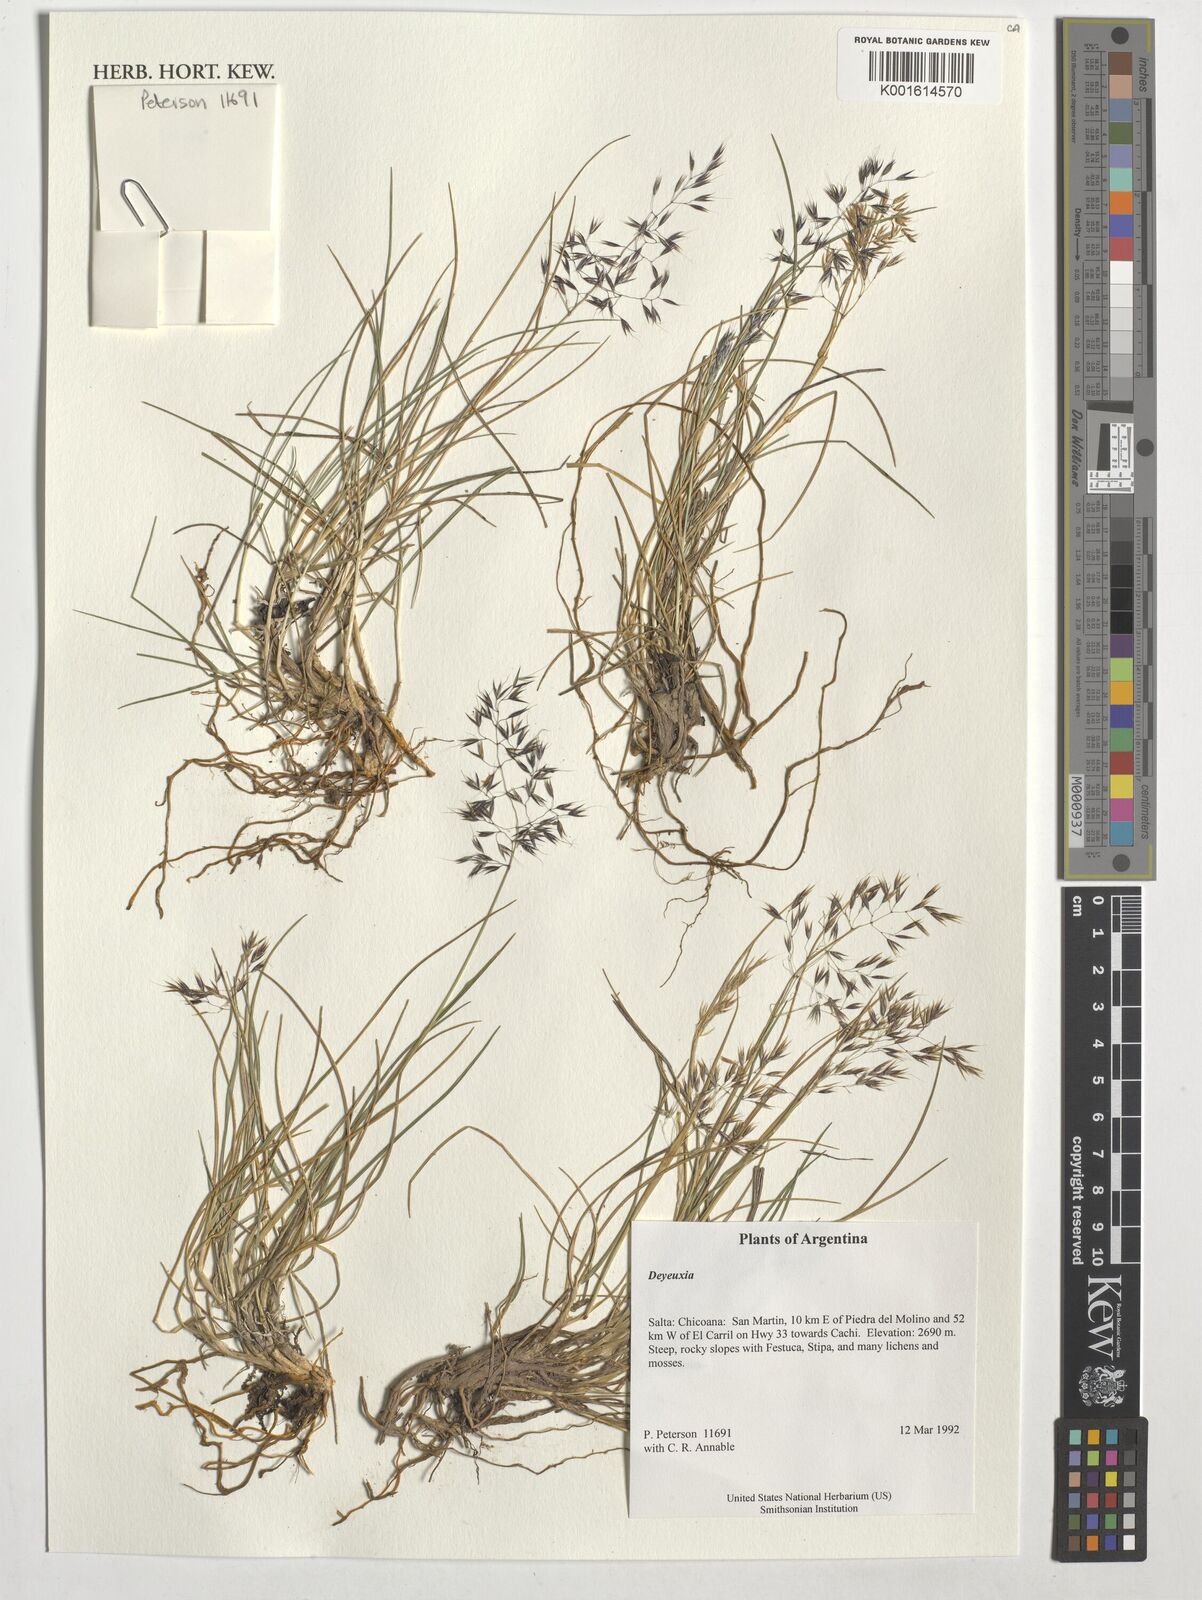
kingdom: Plantae
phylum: Tracheophyta
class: Liliopsida
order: Poales
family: Poaceae
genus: Calamagrostis
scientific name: Calamagrostis
